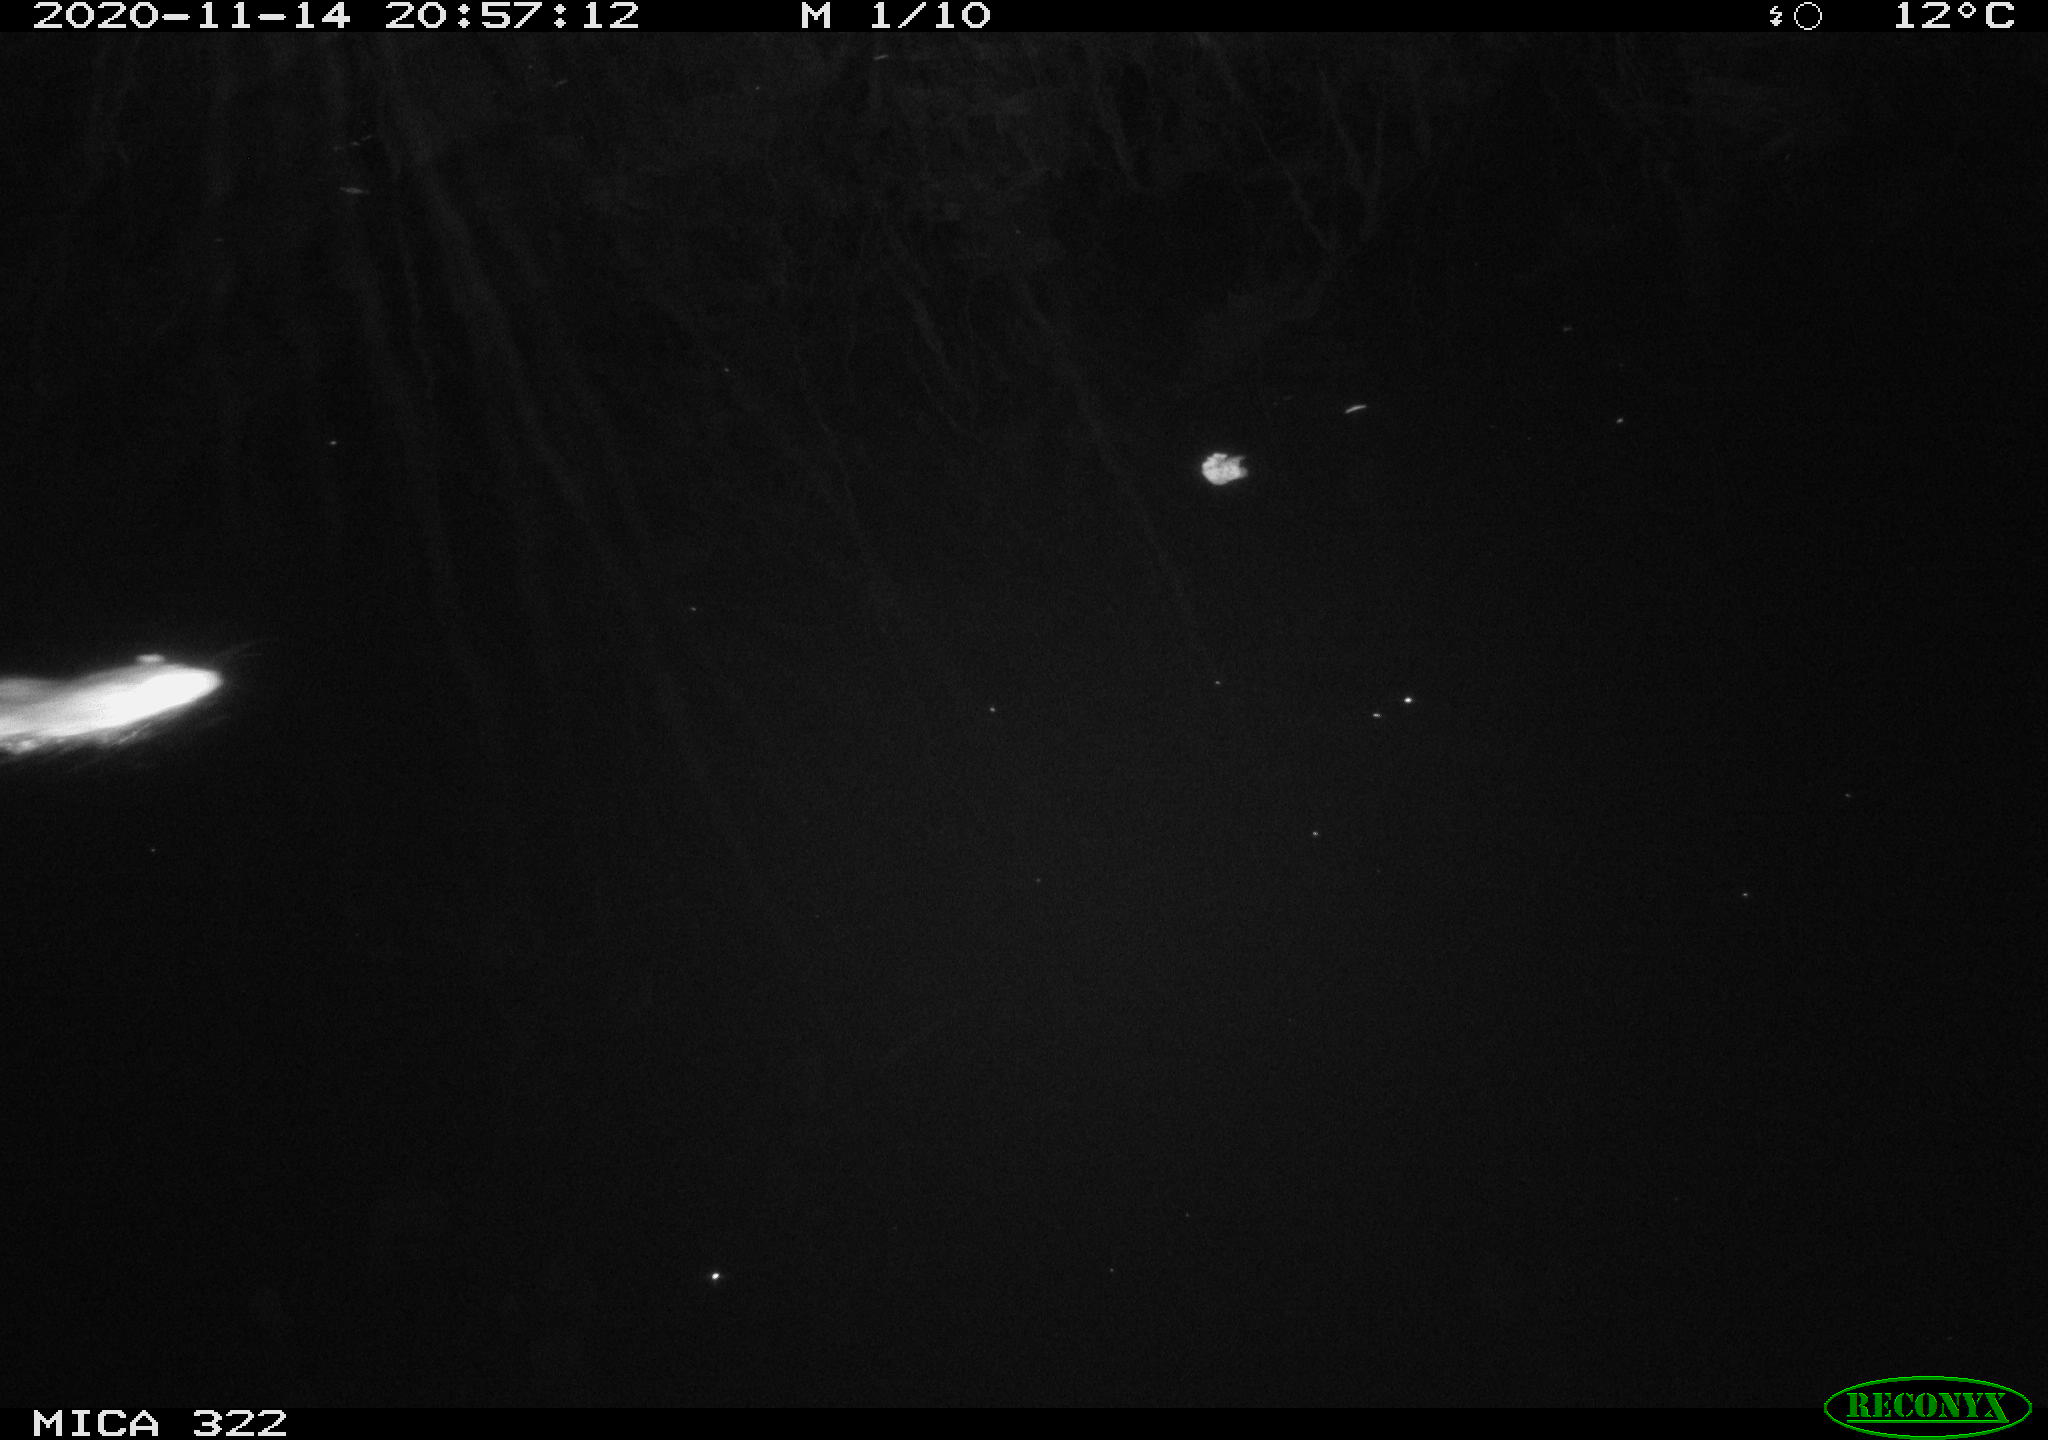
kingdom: Animalia
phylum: Chordata
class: Mammalia
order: Rodentia
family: Muridae
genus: Rattus
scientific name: Rattus norvegicus
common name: Brown rat
